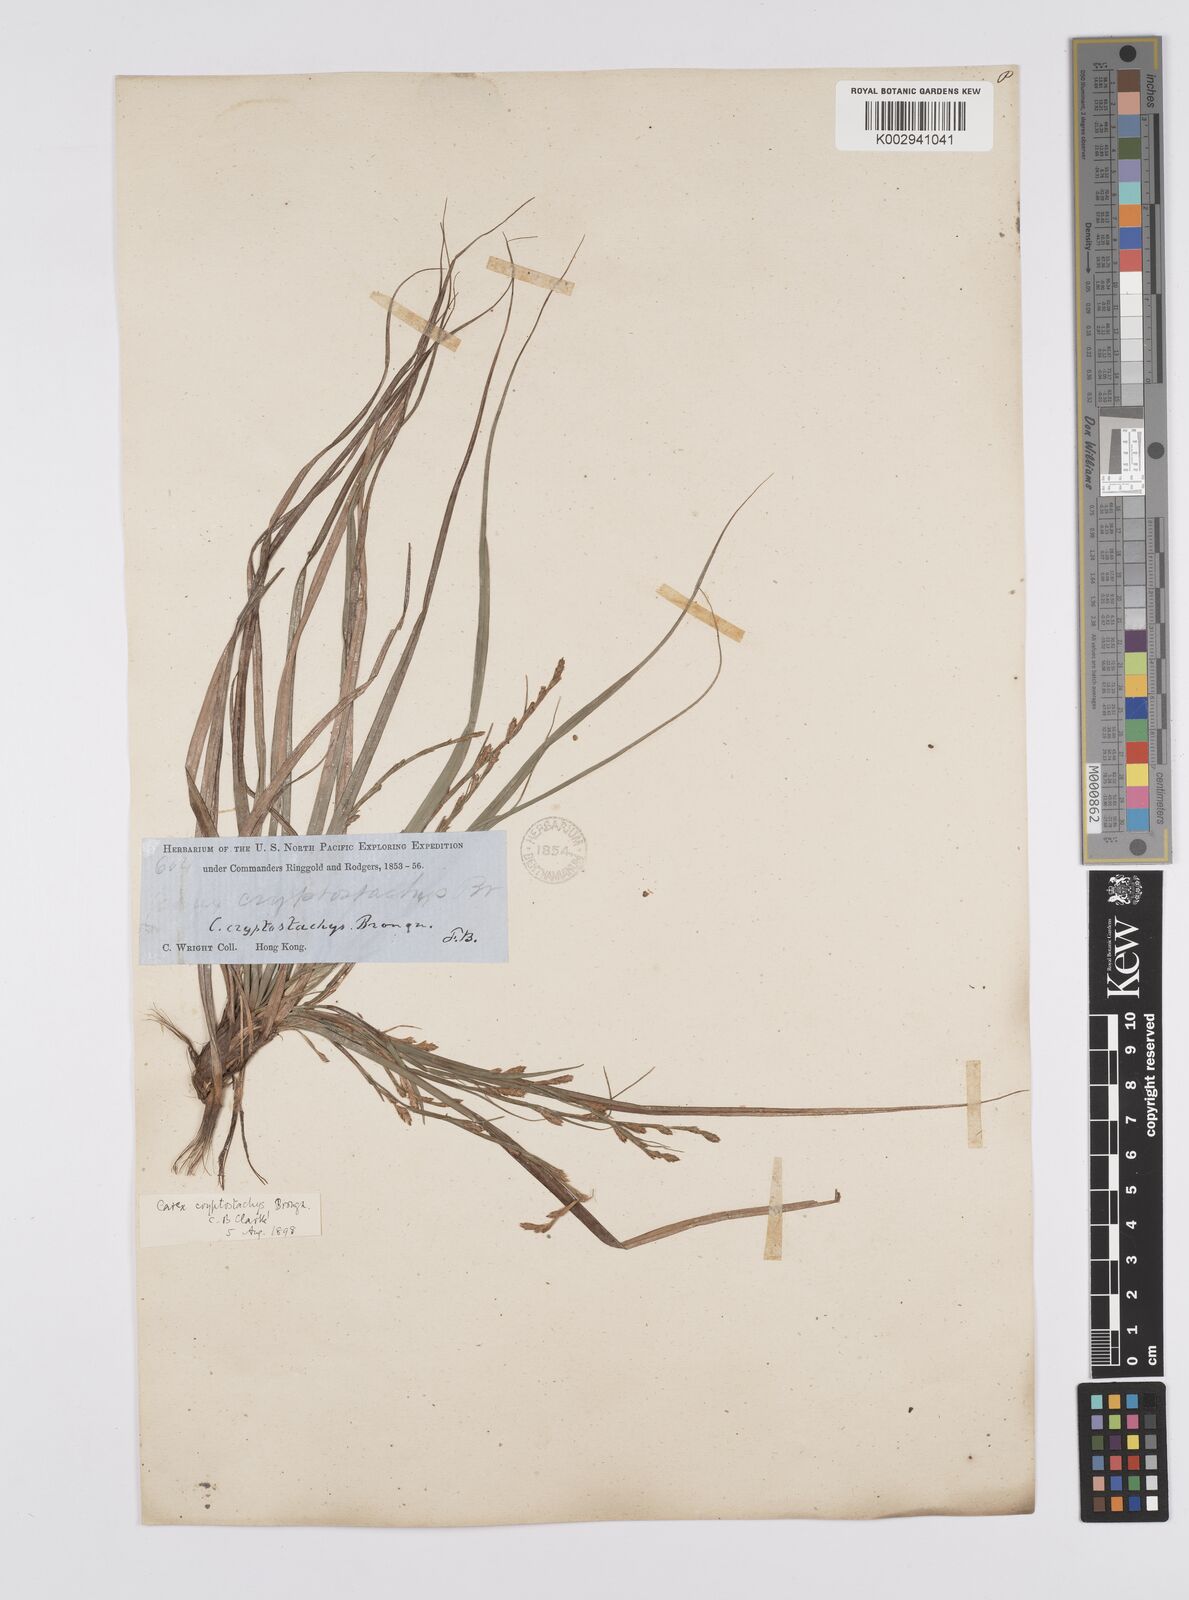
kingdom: Plantae
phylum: Tracheophyta
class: Liliopsida
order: Poales
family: Cyperaceae
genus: Carex
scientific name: Carex cryptostachys
